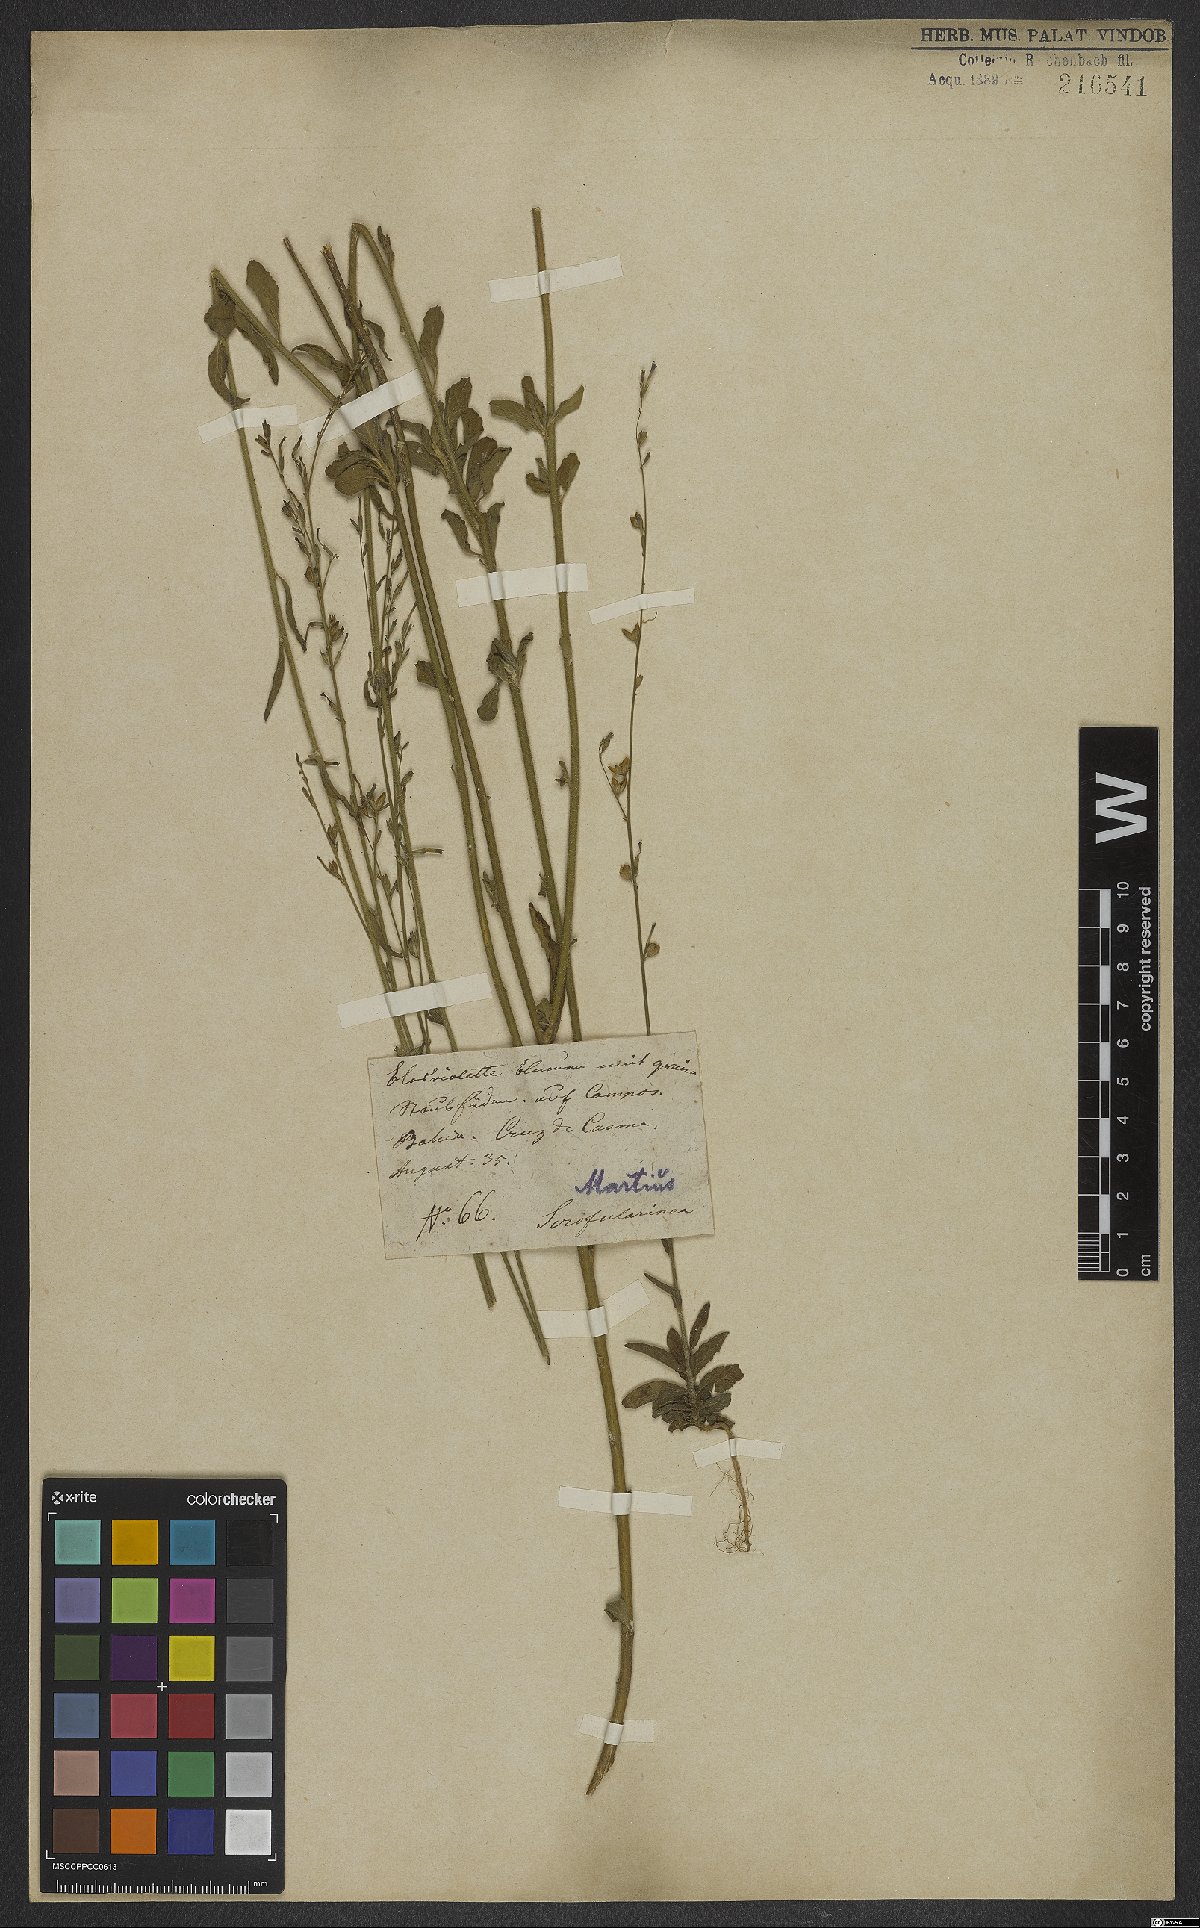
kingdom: Plantae
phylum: Tracheophyta
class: Magnoliopsida
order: Lamiales
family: Scrophulariaceae
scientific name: Scrophulariaceae
